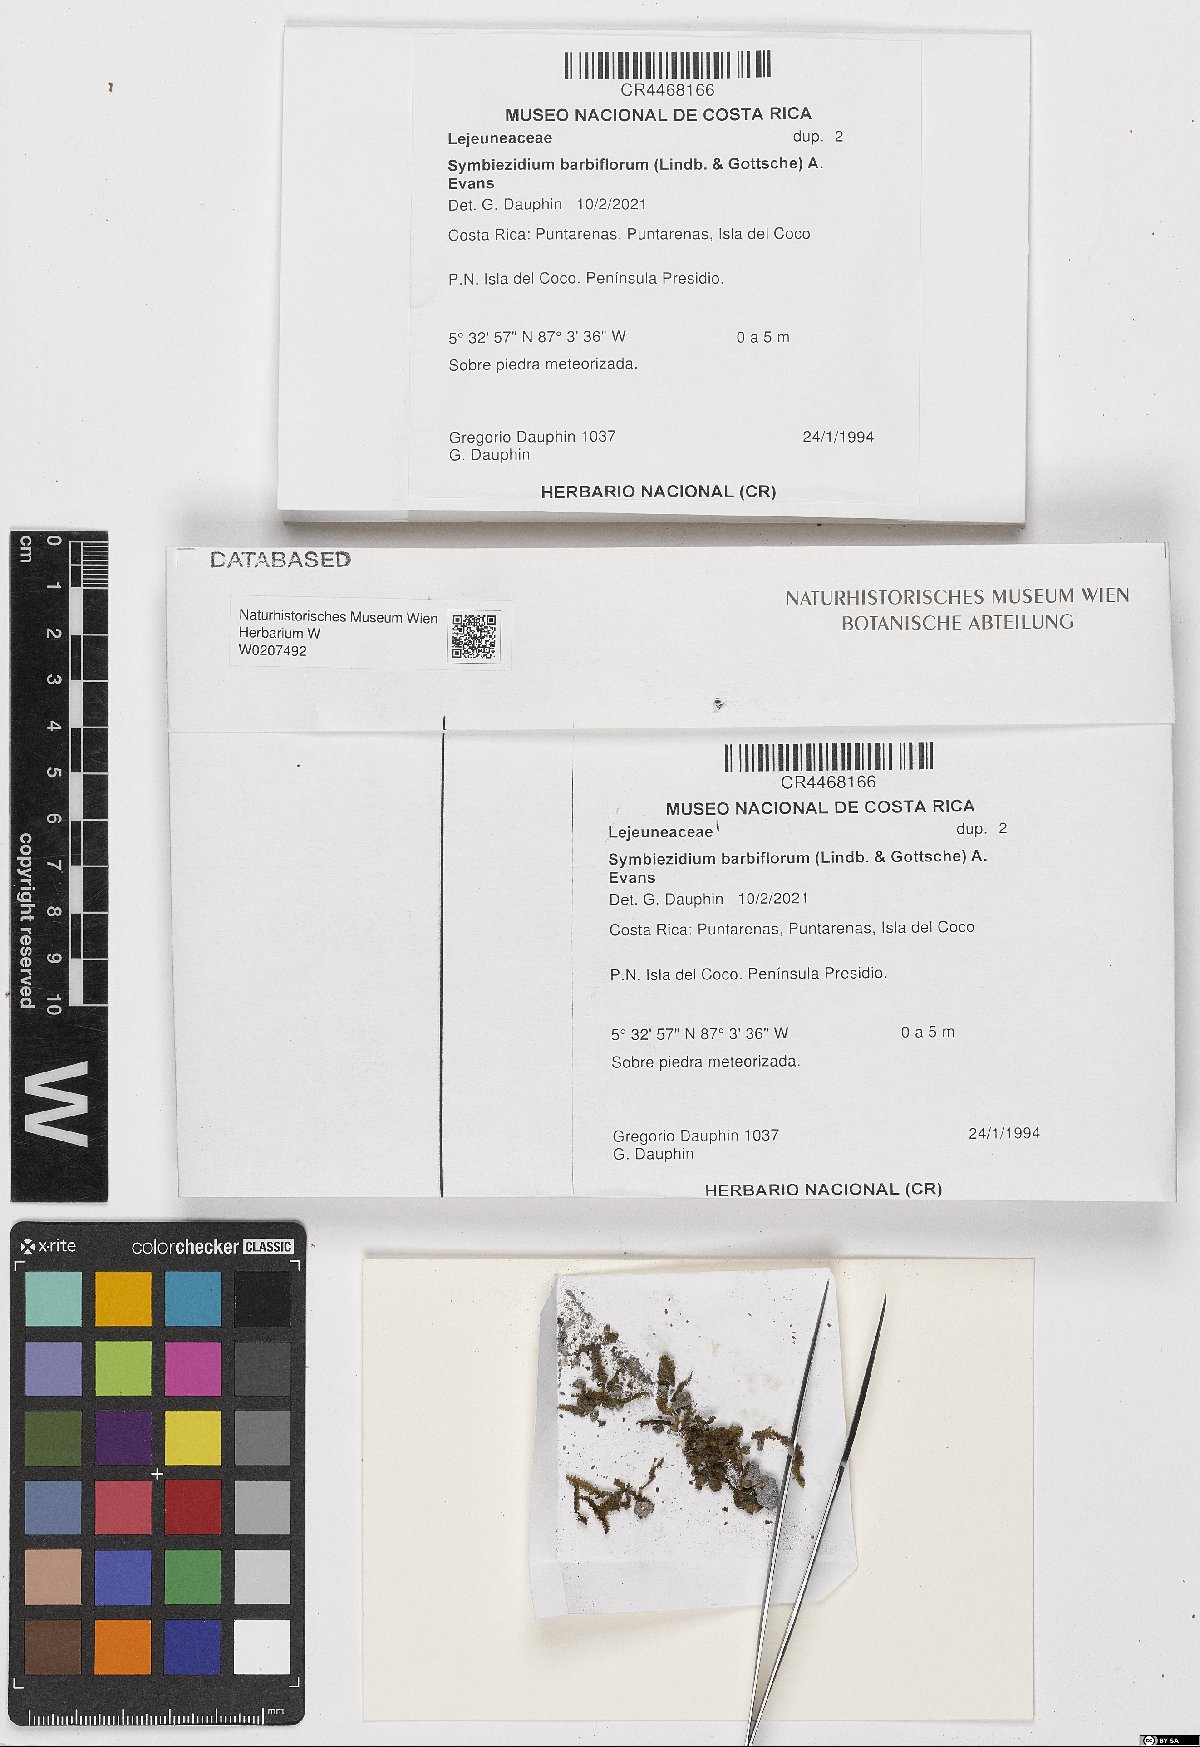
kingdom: Plantae
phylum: Marchantiophyta
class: Jungermanniopsida
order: Porellales
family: Lejeuneaceae
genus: Stictolejeunea
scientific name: Stictolejeunea squamata
